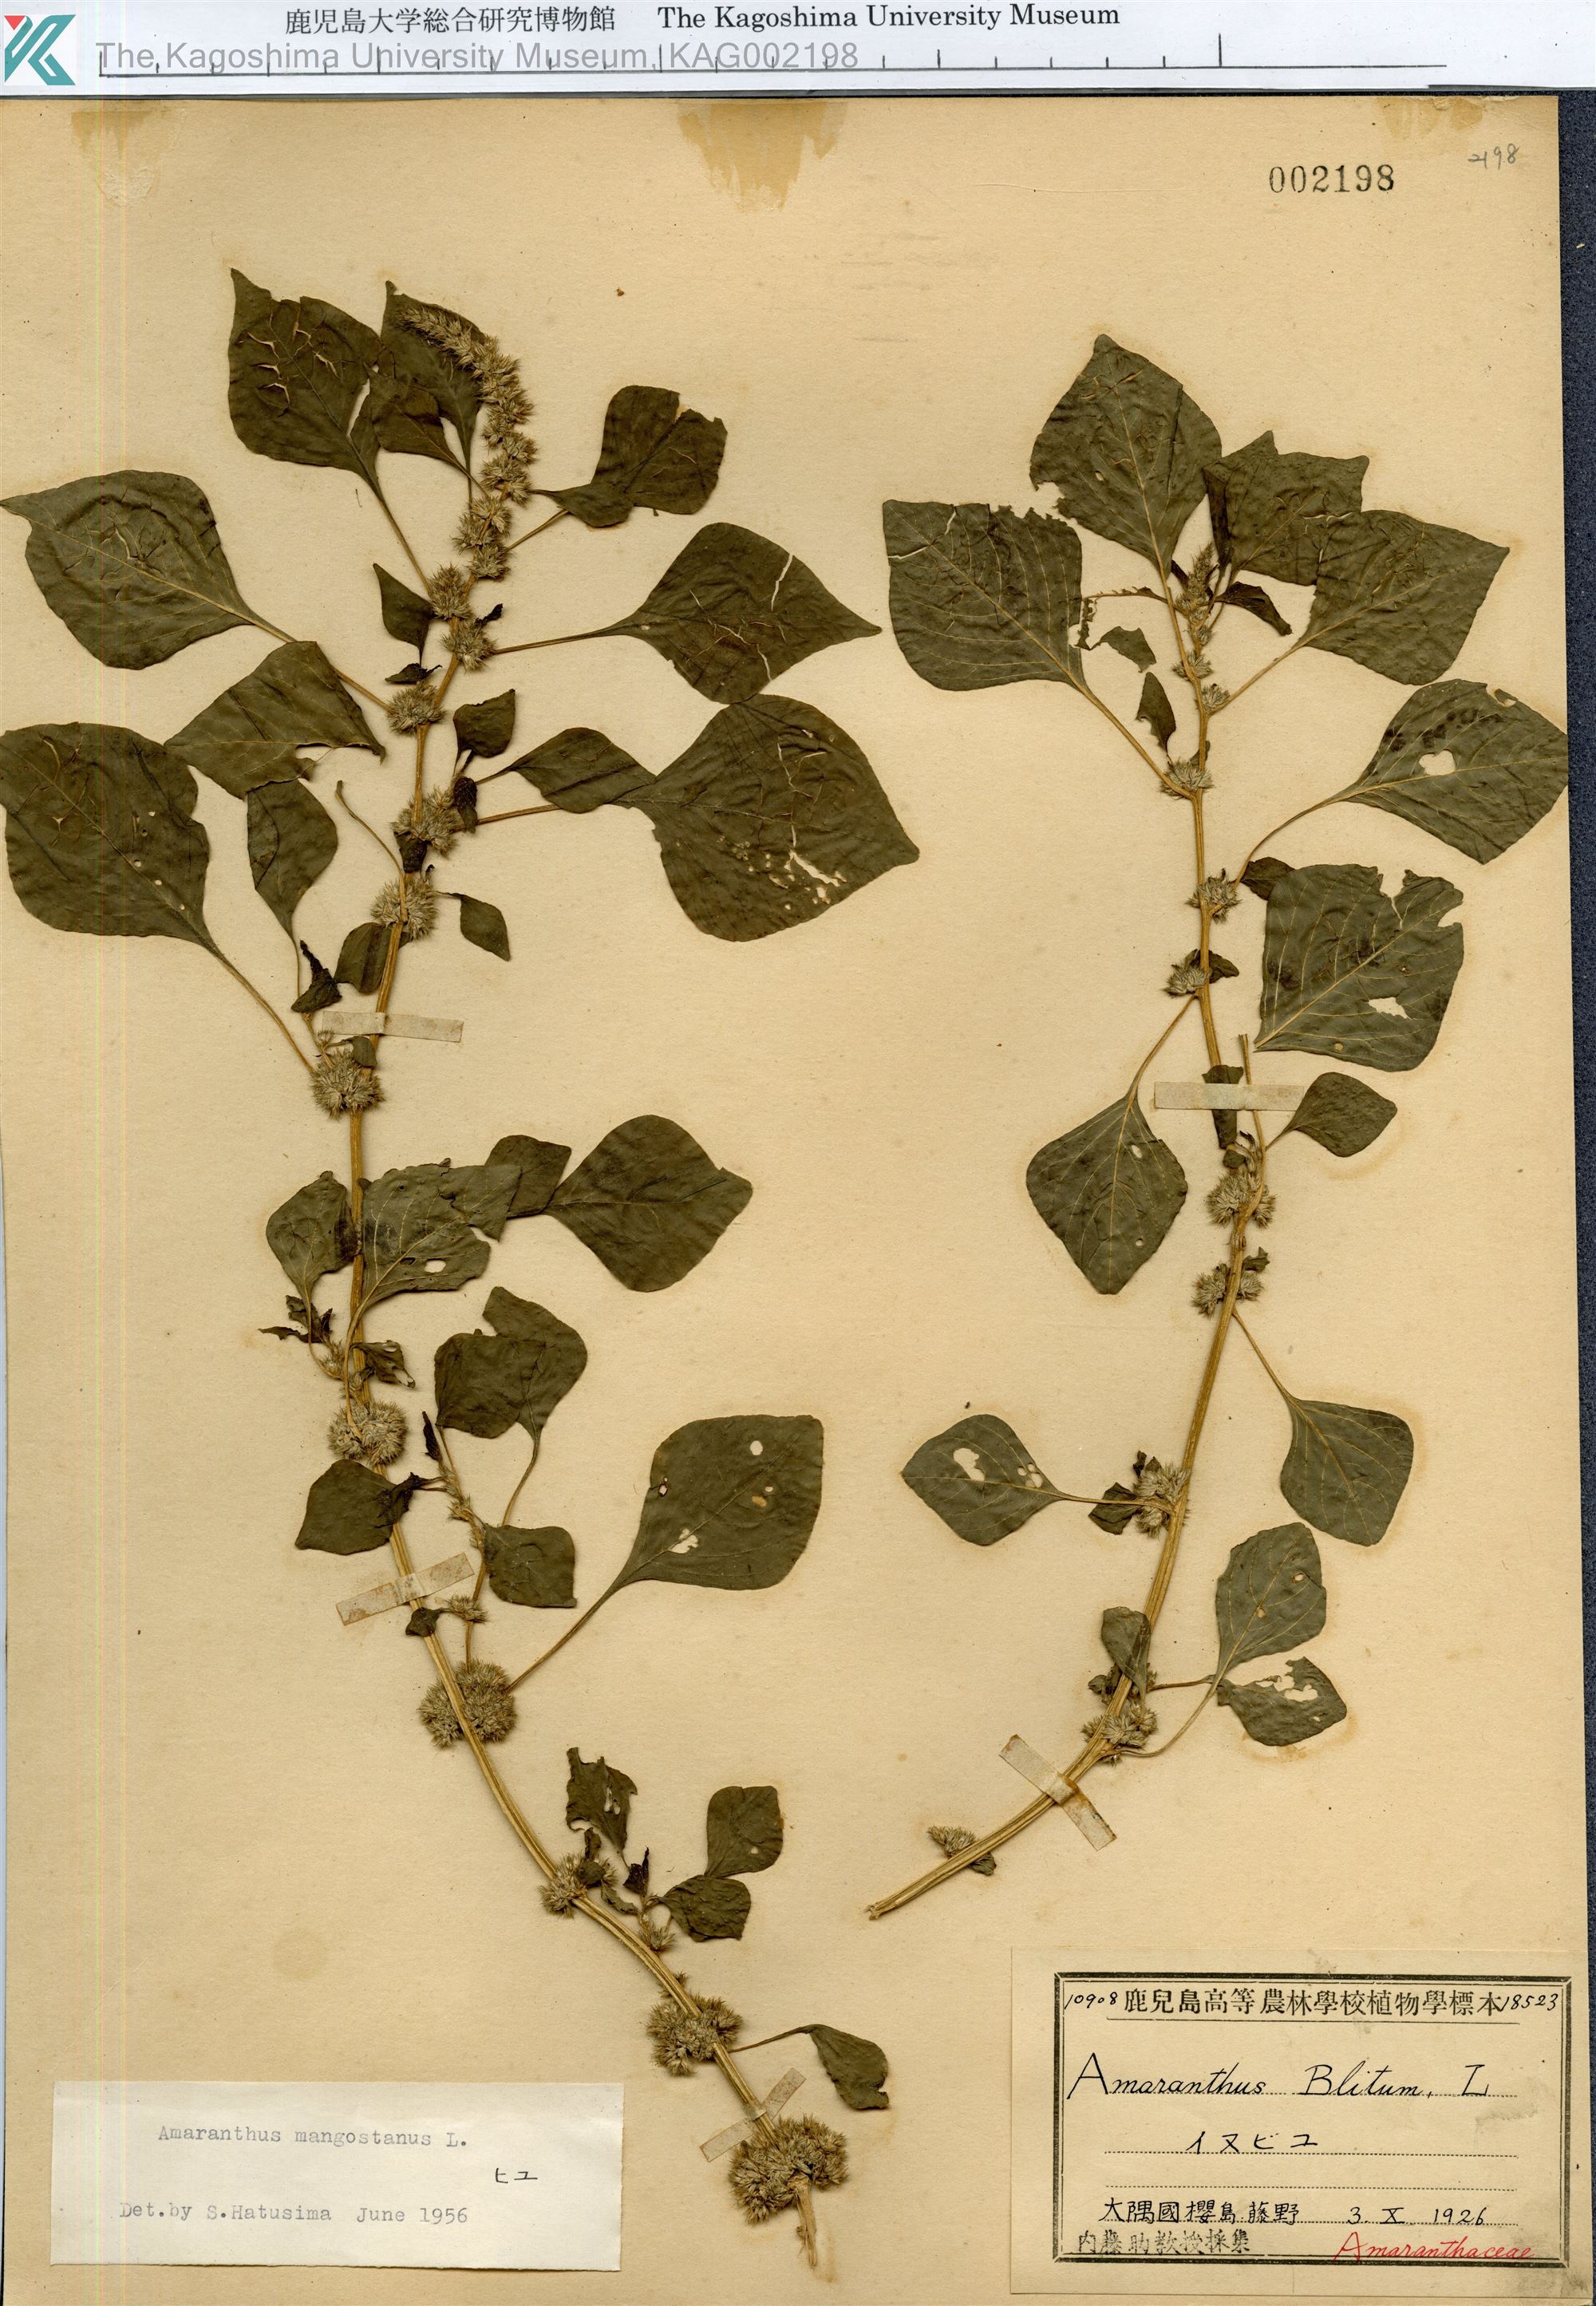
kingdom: Plantae
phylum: Tracheophyta
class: Magnoliopsida
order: Caryophyllales
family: Amaranthaceae
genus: Amaranthus
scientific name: Amaranthus tricolor
